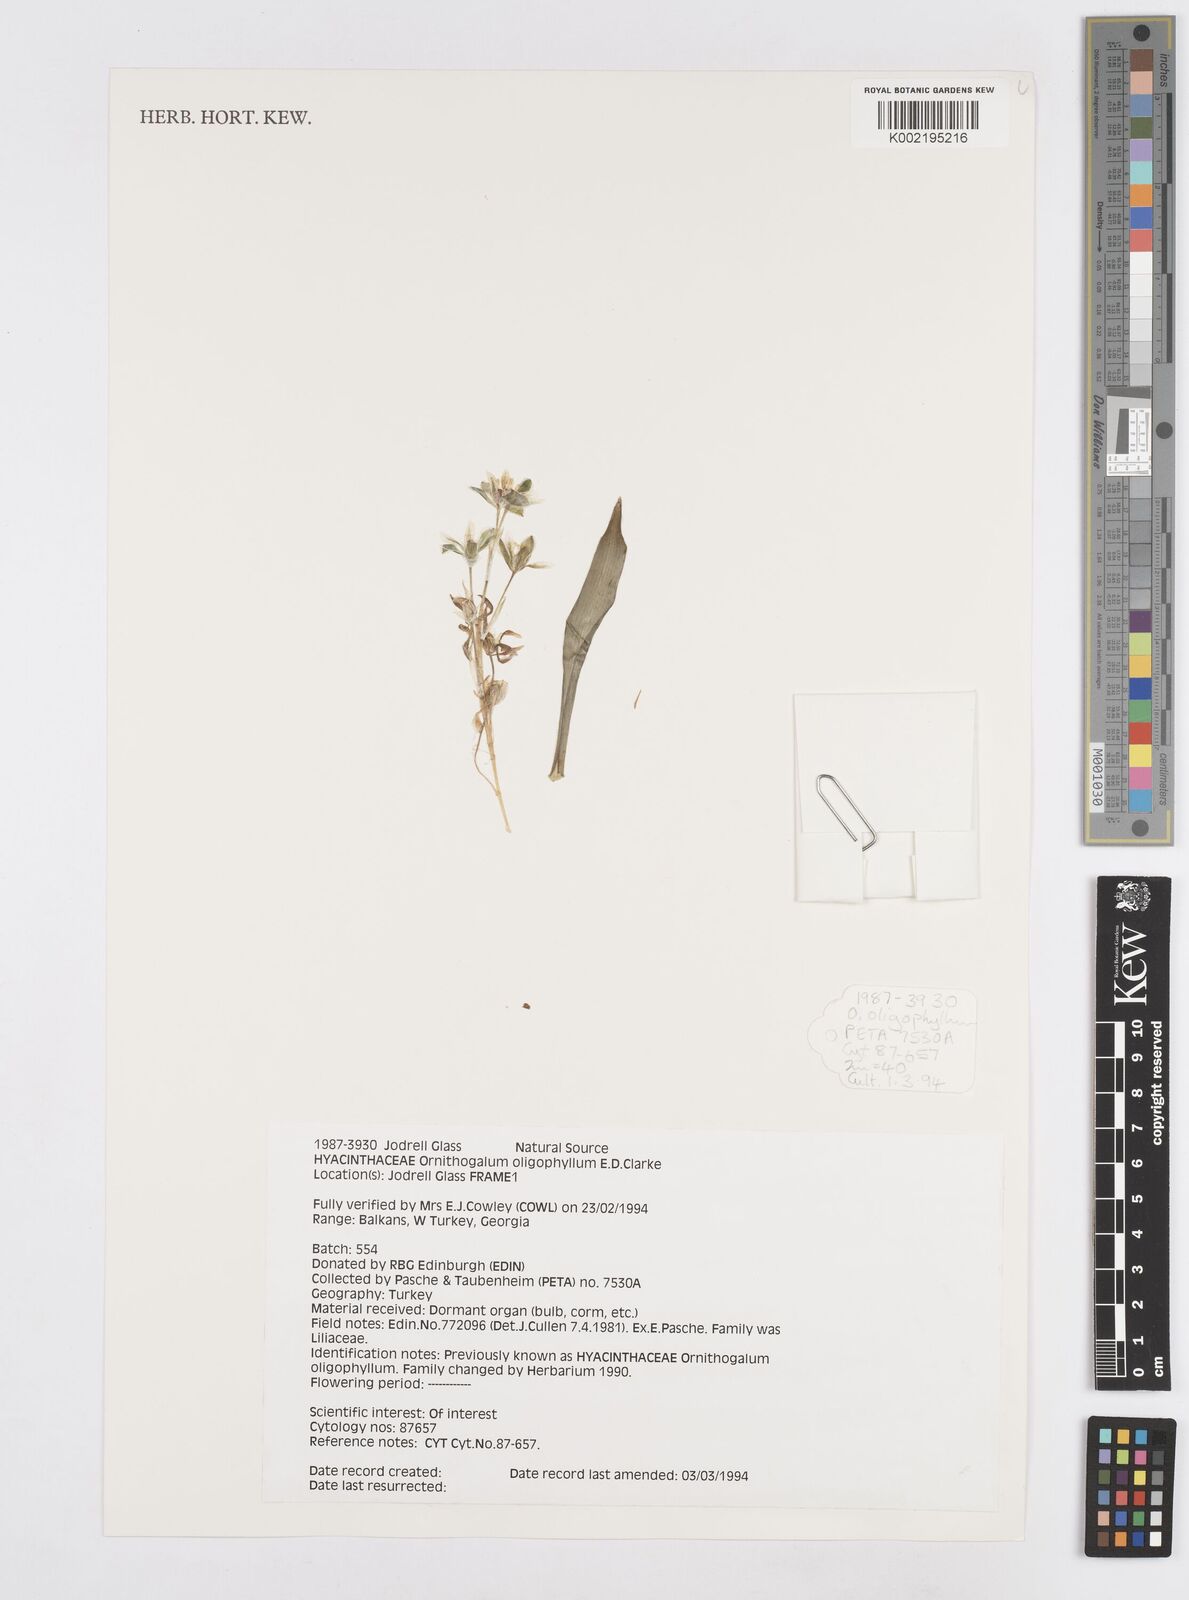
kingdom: Plantae
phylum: Tracheophyta
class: Liliopsida
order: Asparagales
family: Asparagaceae
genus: Ornithogalum
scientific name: Ornithogalum oligophyllum
